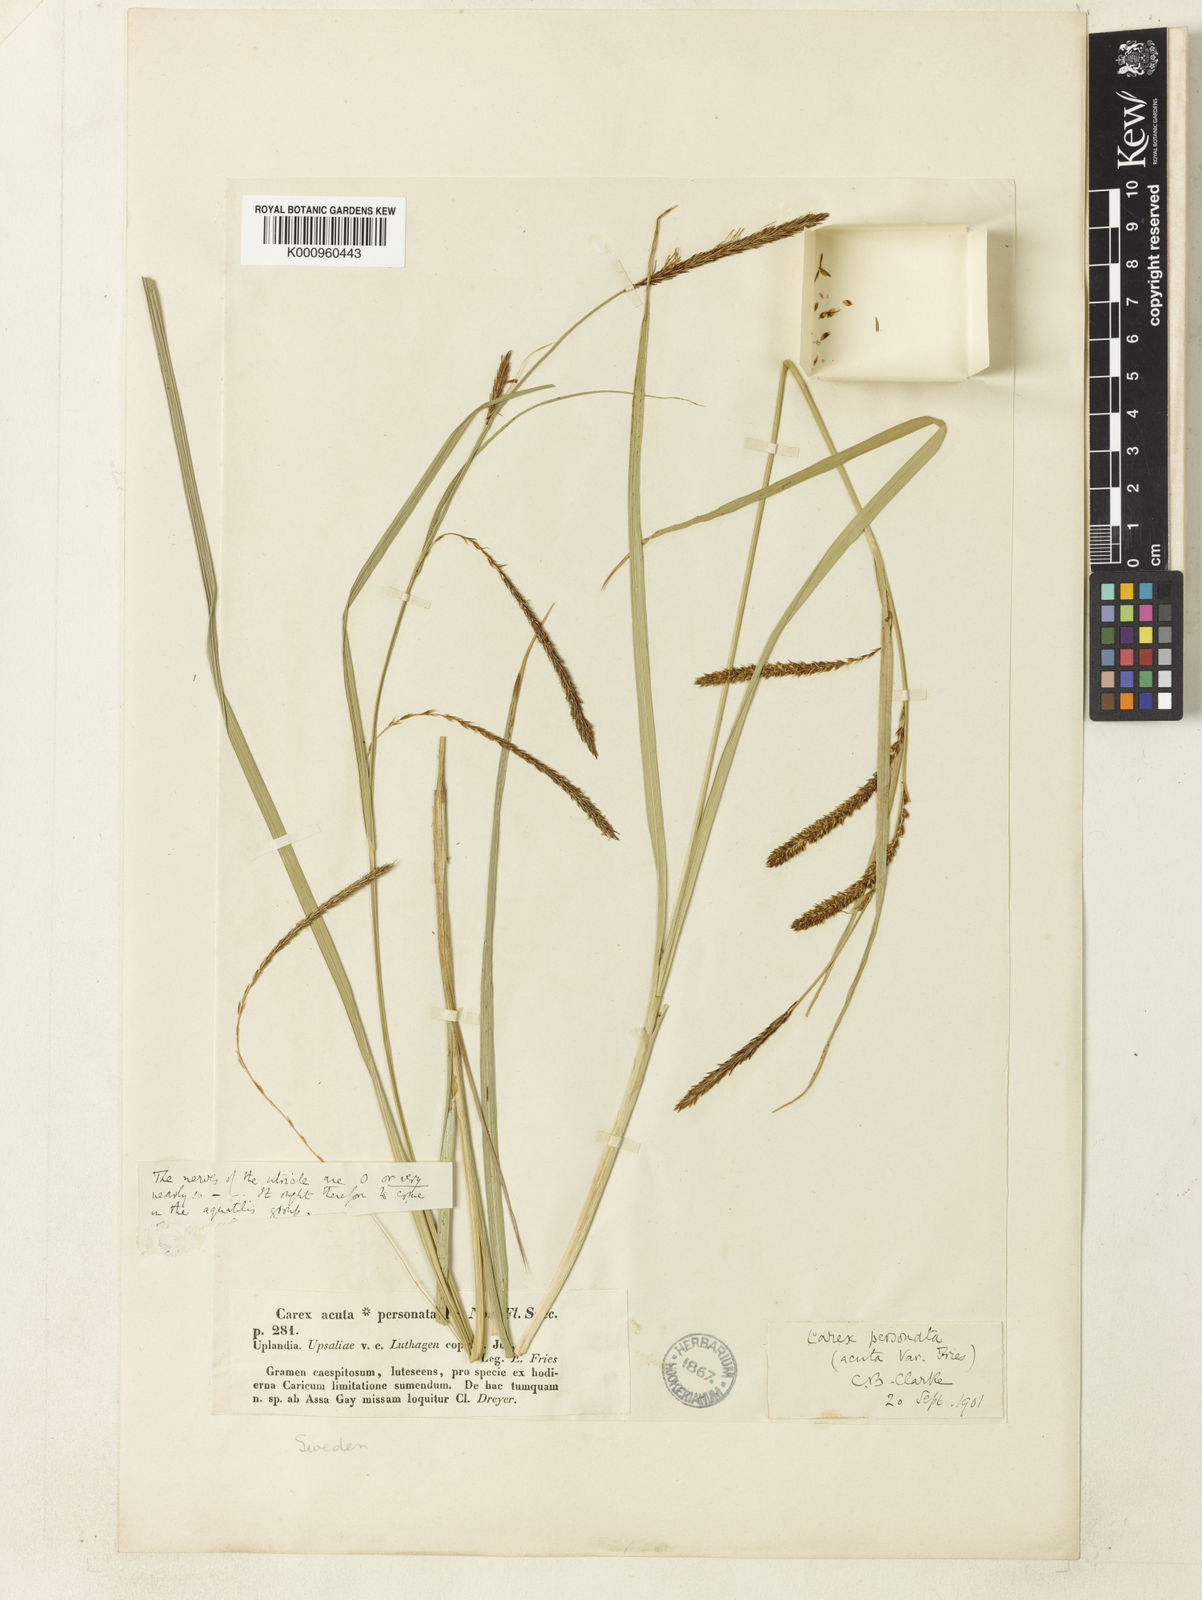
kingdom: Plantae
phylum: Tracheophyta
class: Liliopsida
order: Poales
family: Cyperaceae
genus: Carex
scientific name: Carex acuta
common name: Slender tufted-sedge
